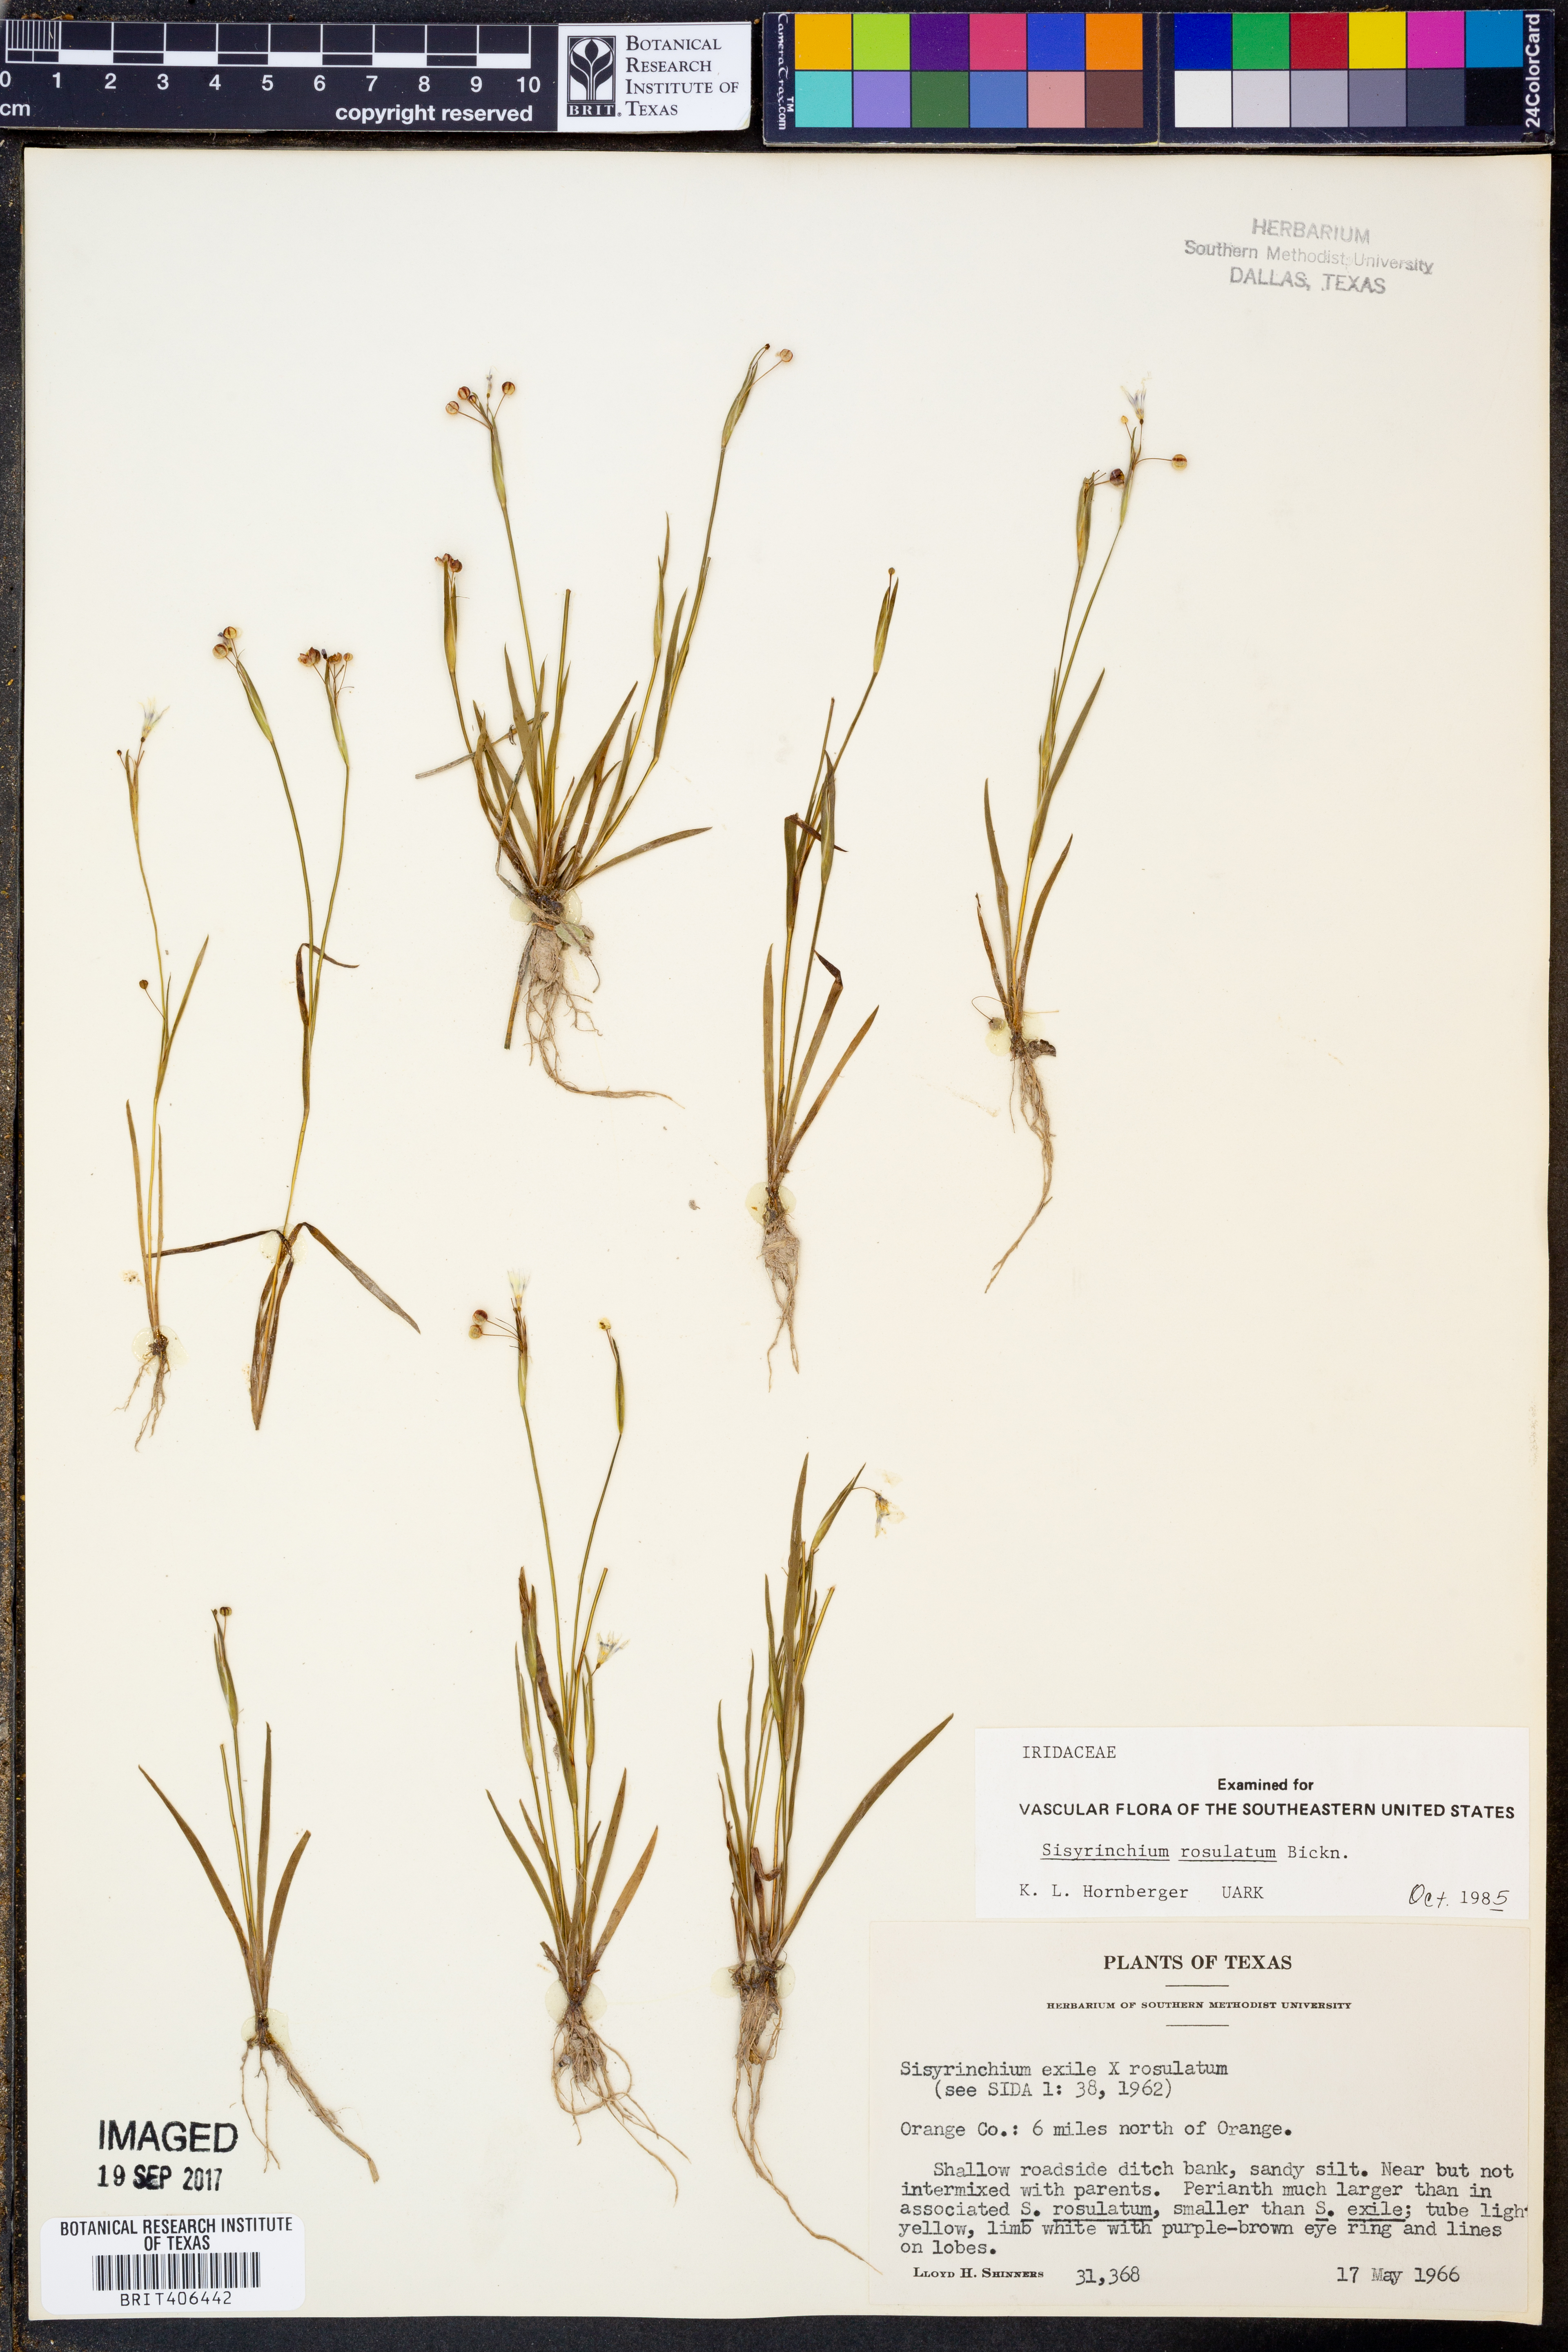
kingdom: Plantae
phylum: Tracheophyta
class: Liliopsida
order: Asparagales
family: Iridaceae
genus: Sisyrinchium
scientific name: Sisyrinchium rosulatum
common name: Annual blue-eyed grass
